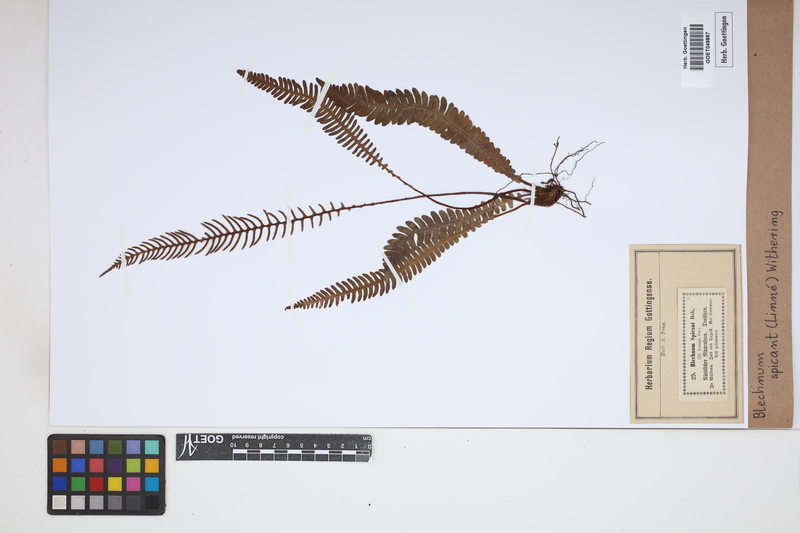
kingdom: Plantae
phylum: Tracheophyta
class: Polypodiopsida
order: Polypodiales
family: Blechnaceae
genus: Struthiopteris
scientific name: Struthiopteris spicant
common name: Deer fern
